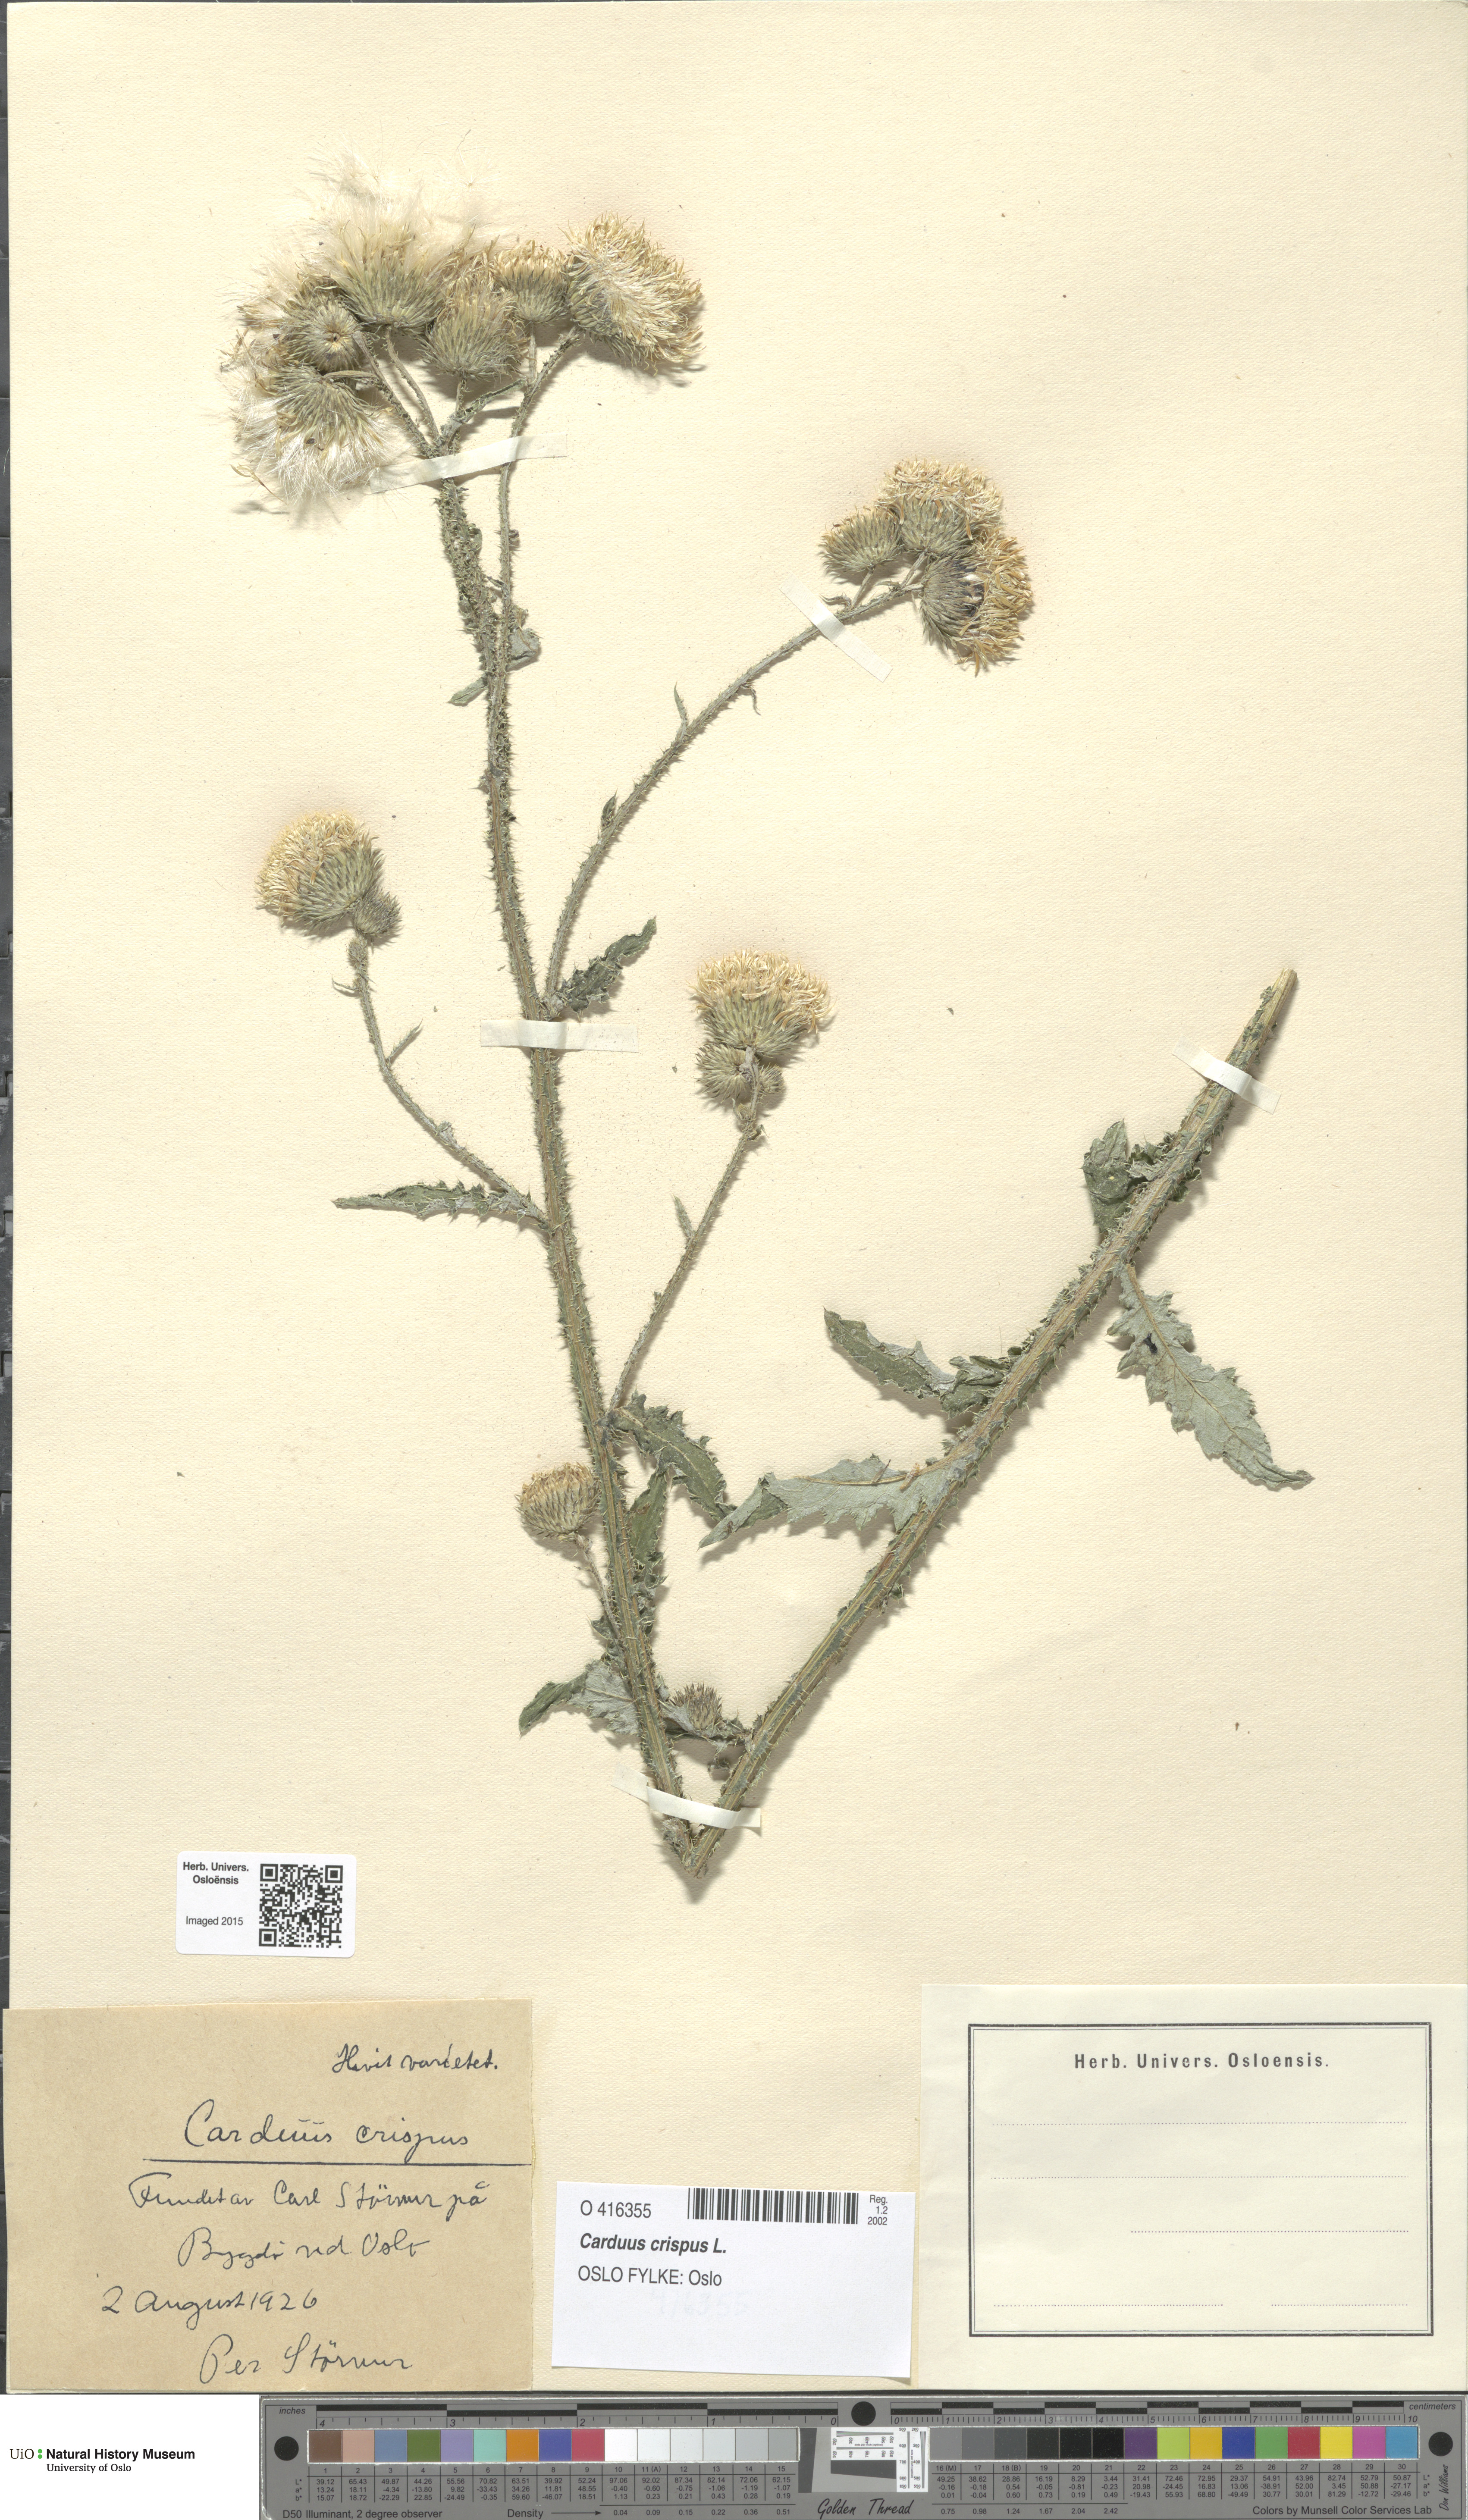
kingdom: Plantae
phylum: Tracheophyta
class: Magnoliopsida
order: Asterales
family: Asteraceae
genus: Carduus
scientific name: Carduus crispus
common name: Welted thistle
